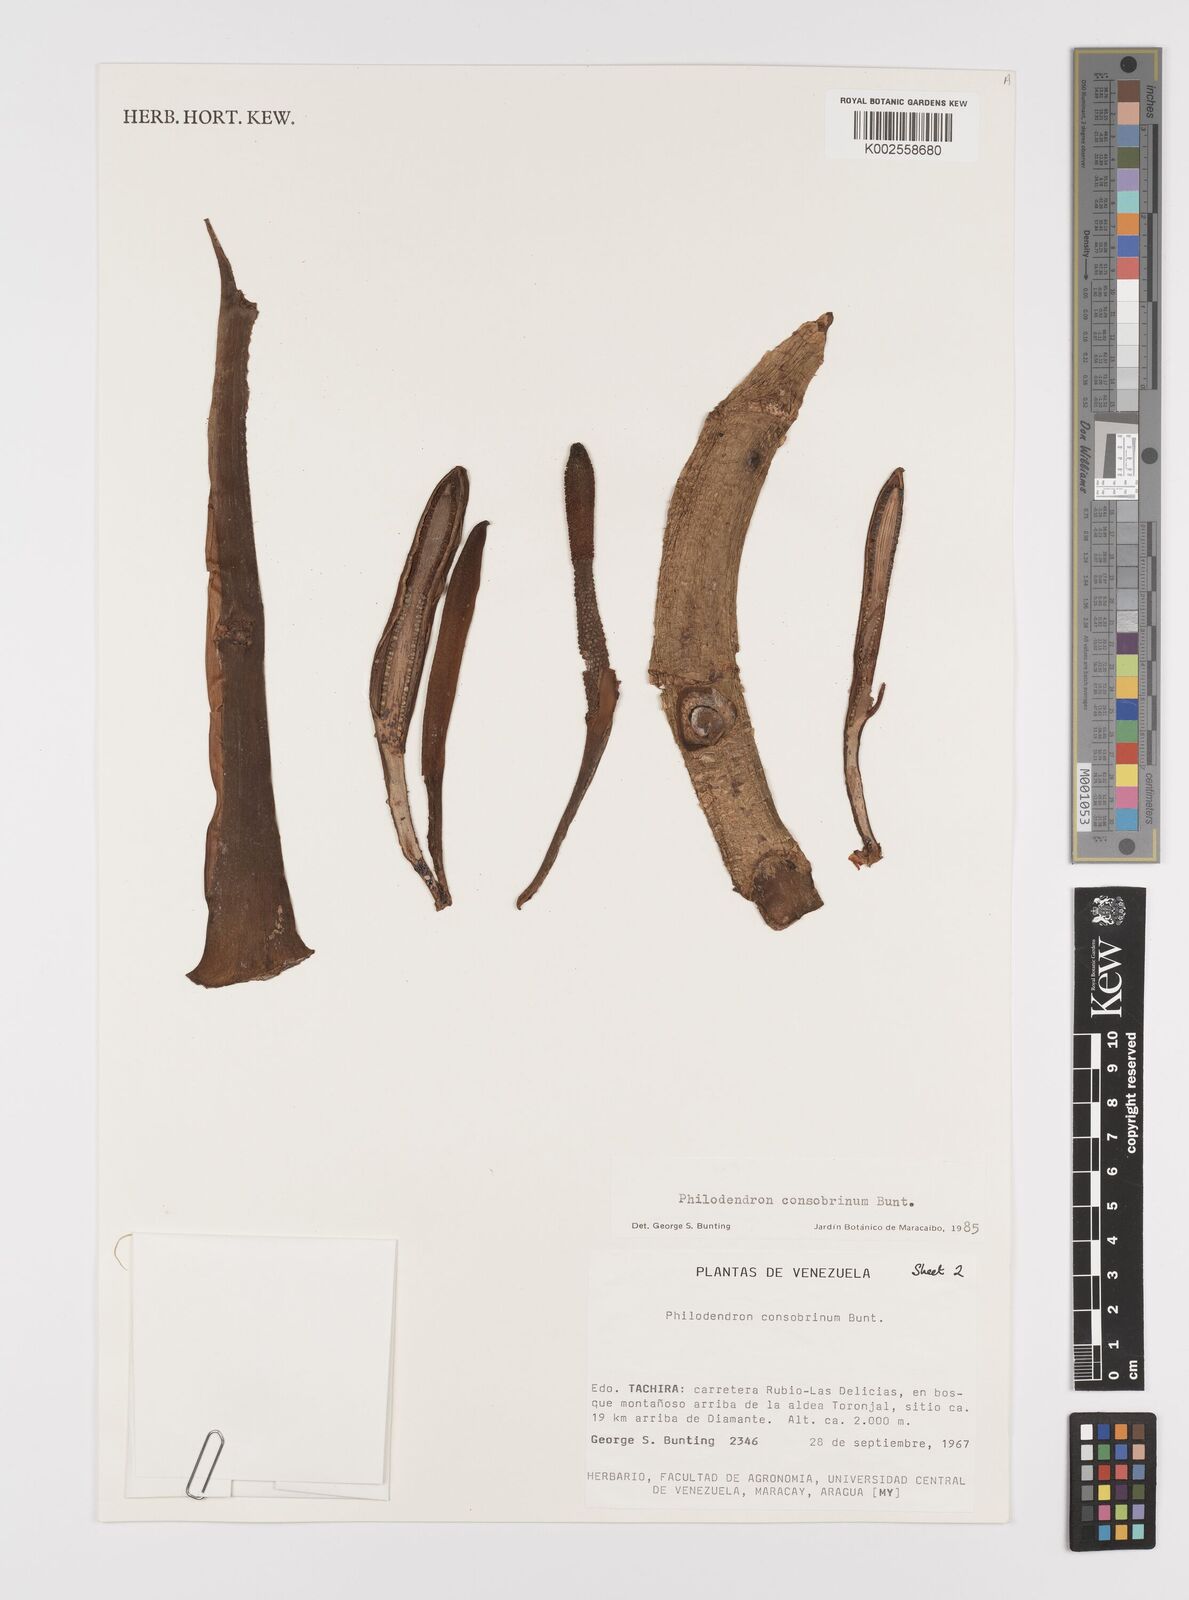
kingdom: Plantae
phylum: Tracheophyta
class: Liliopsida
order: Alismatales
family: Araceae
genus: Philodendron
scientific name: Philodendron consobrinum
